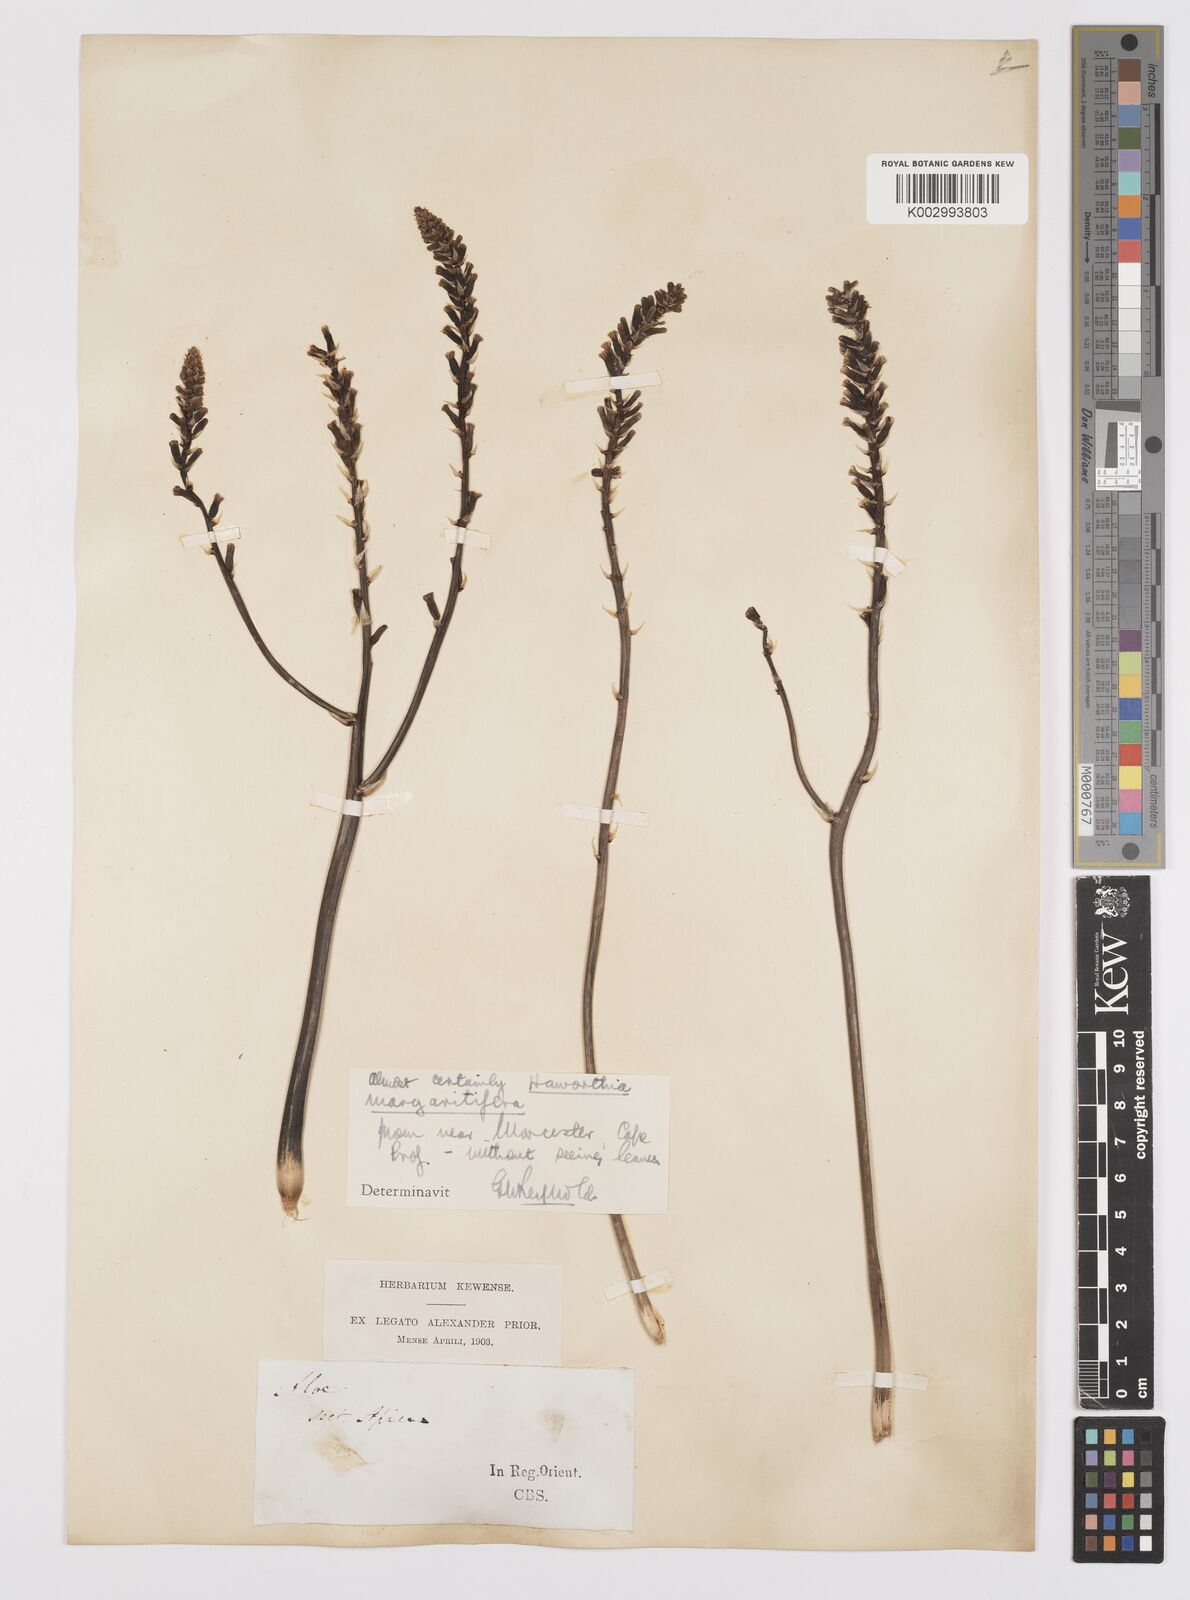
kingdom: Plantae
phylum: Tracheophyta
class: Liliopsida
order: Asparagales
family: Asphodelaceae
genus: Tulista
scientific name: Tulista pumila
